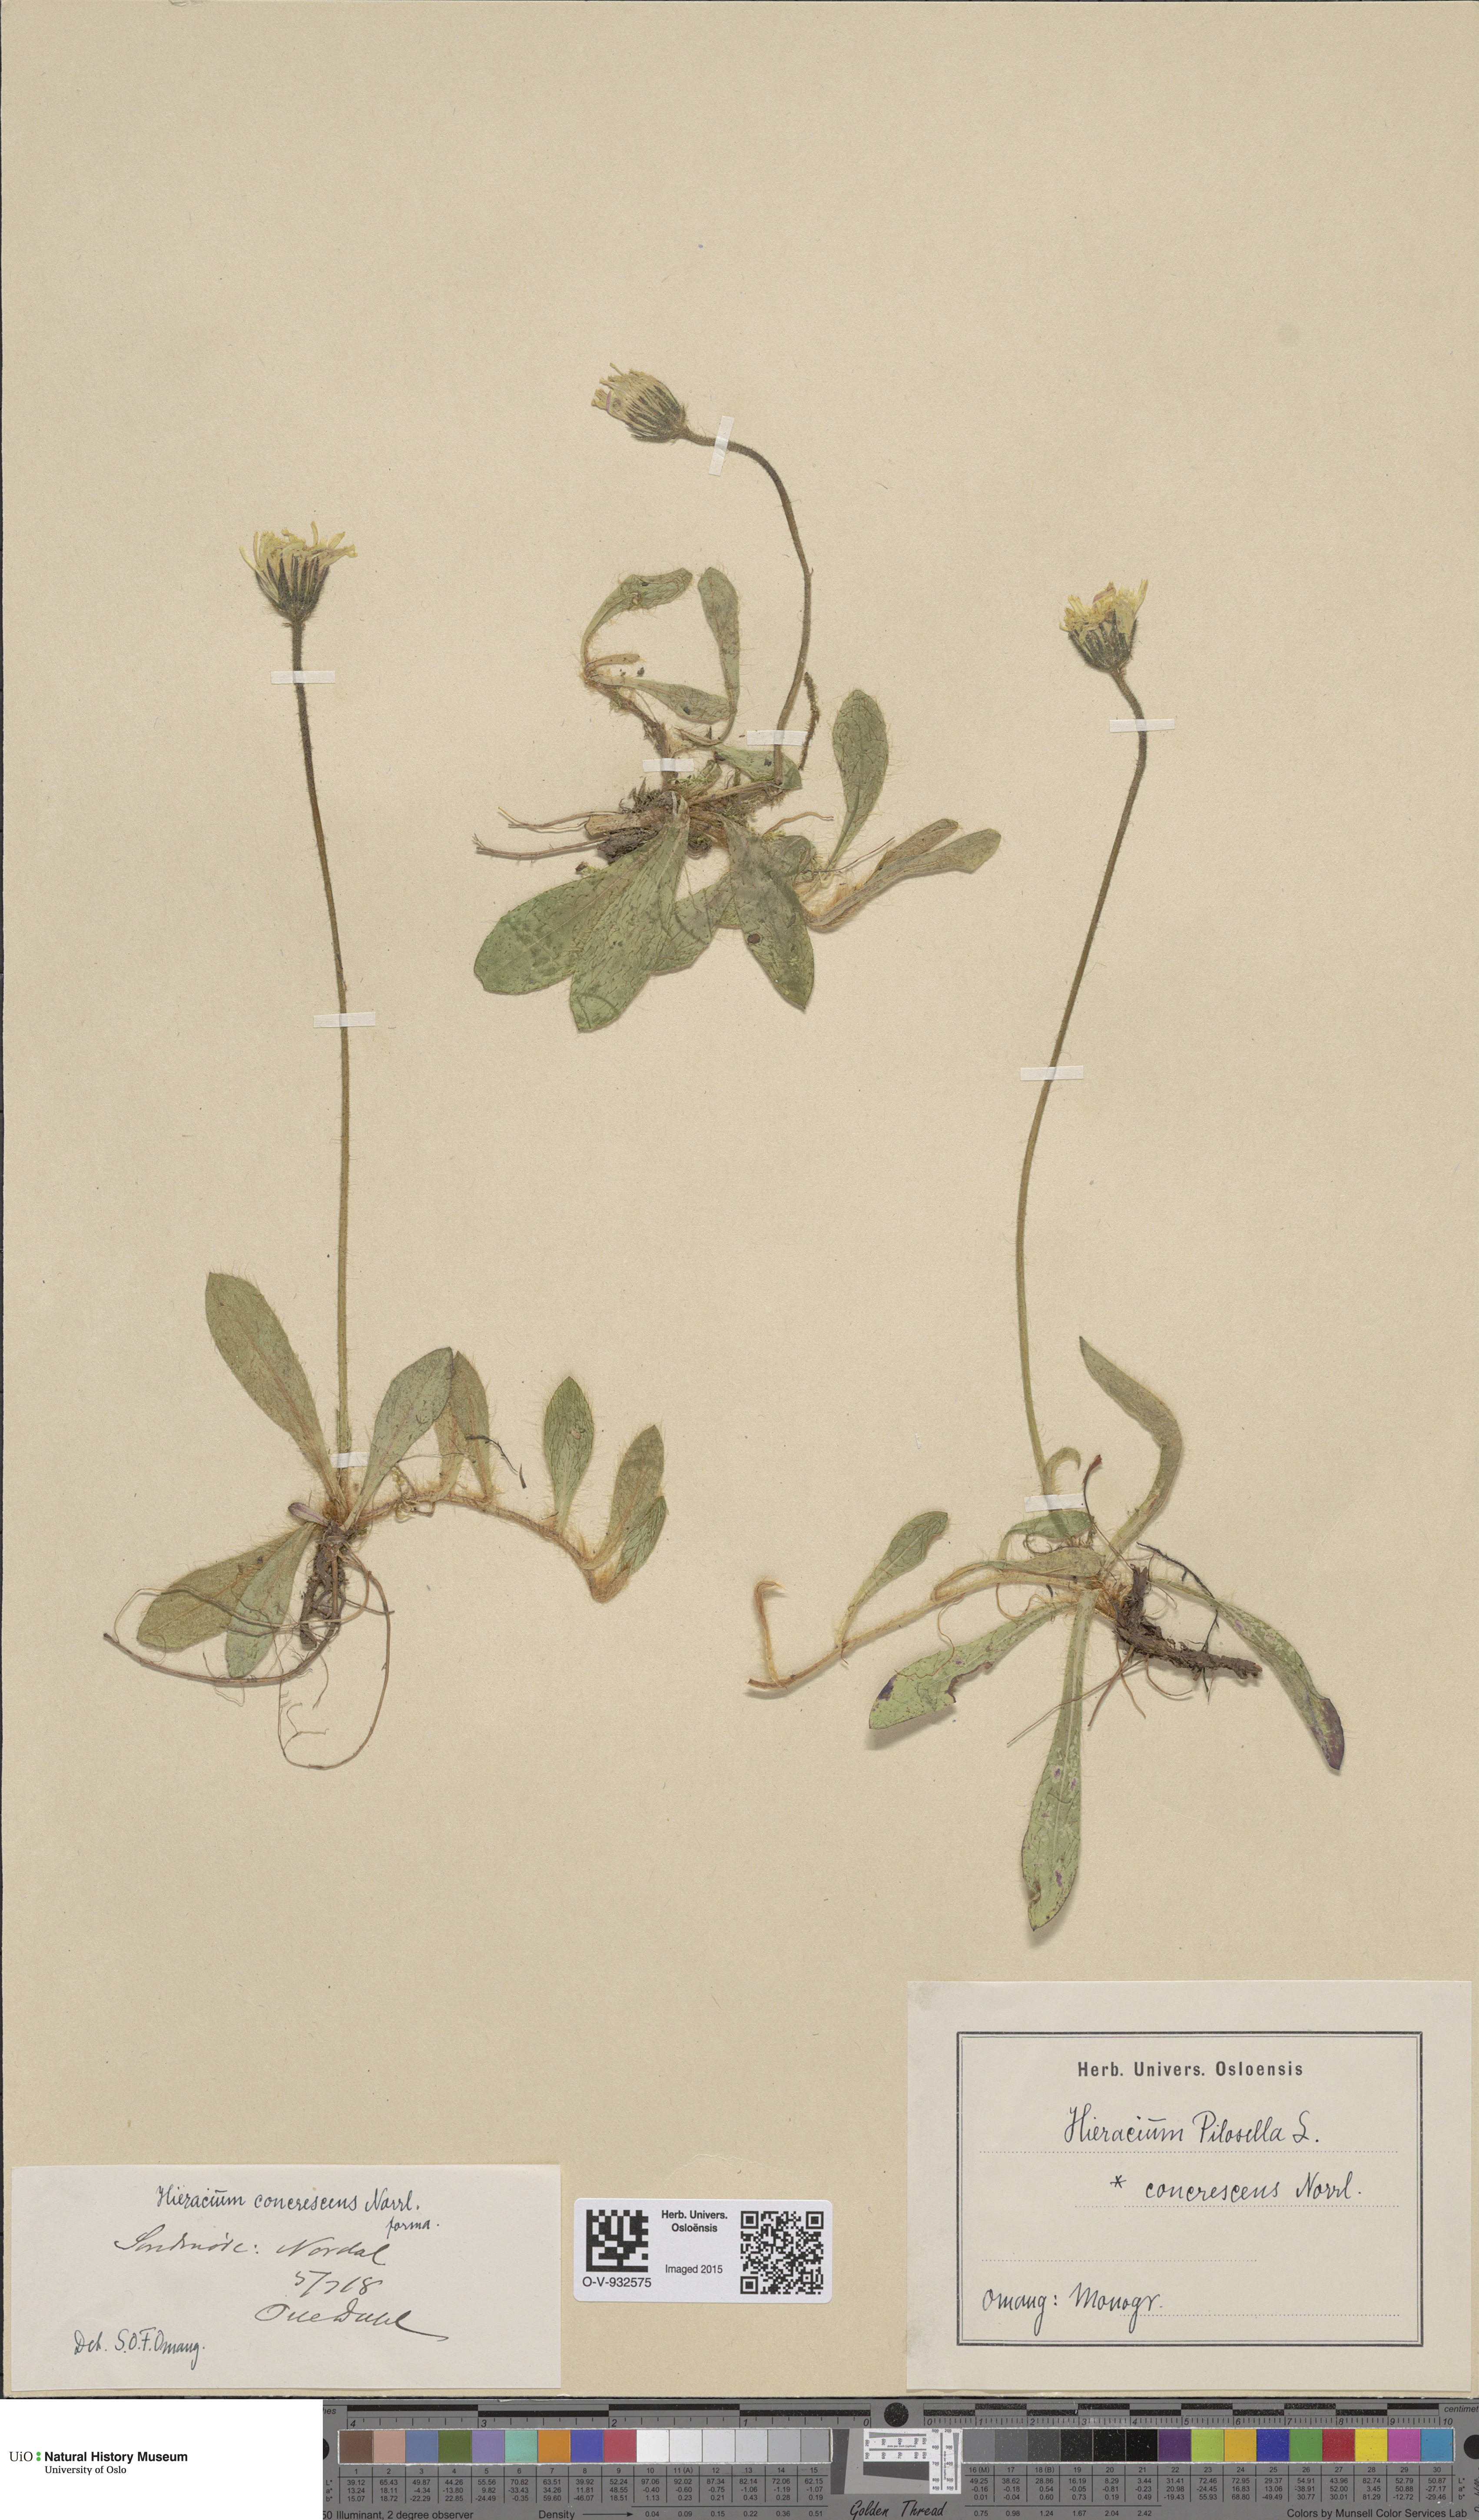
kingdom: Plantae
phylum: Tracheophyta
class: Magnoliopsida
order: Asterales
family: Asteraceae
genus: Pilosella
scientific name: Pilosella officinarum
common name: Mouse-ear hawkweed
